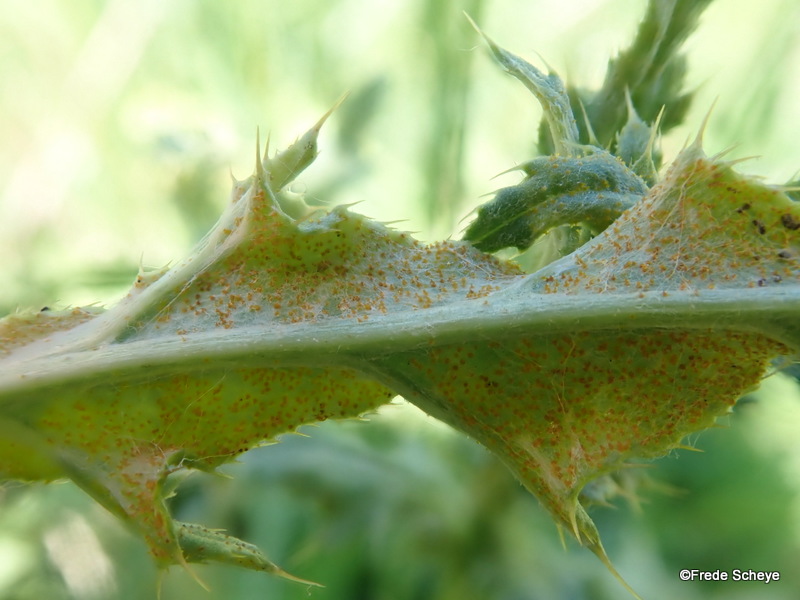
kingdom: Fungi
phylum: Basidiomycota
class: Pucciniomycetes
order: Pucciniales
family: Pucciniaceae
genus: Puccinia
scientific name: Puccinia suaveolens
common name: tidsel-tvecellerust
